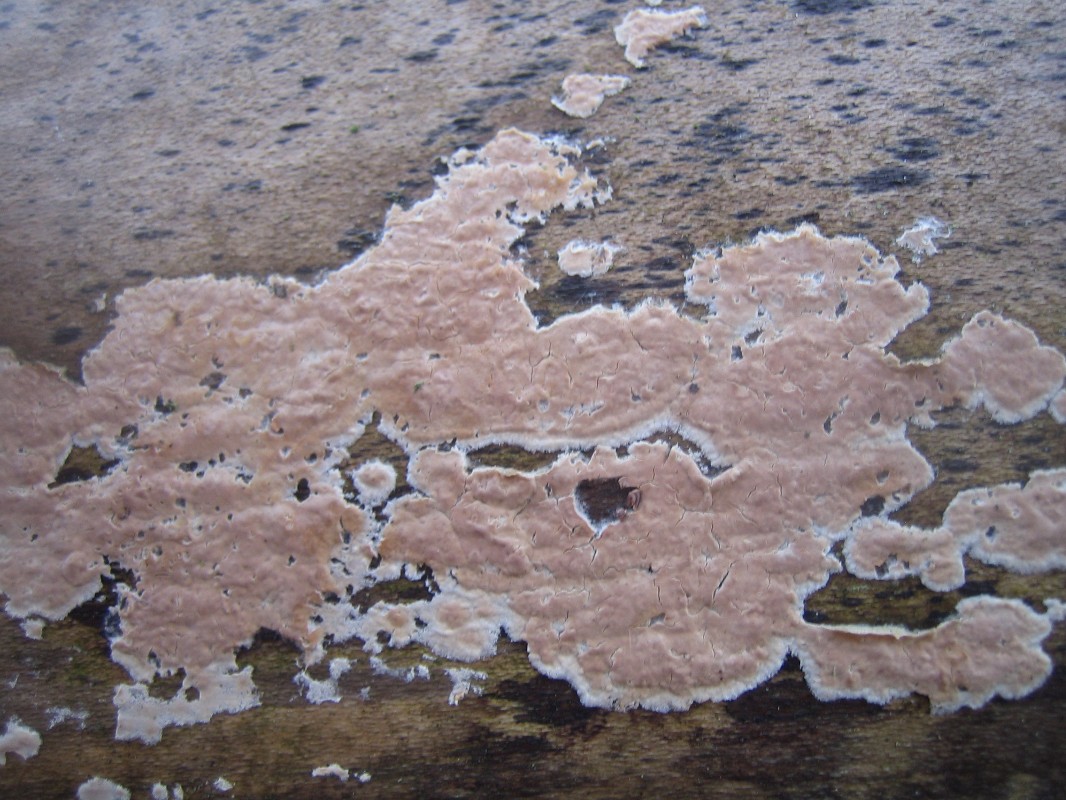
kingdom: Fungi
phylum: Basidiomycota
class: Agaricomycetes
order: Russulales
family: Peniophoraceae
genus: Peniophora
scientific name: Peniophora incarnata
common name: laksefarvet voksskind
